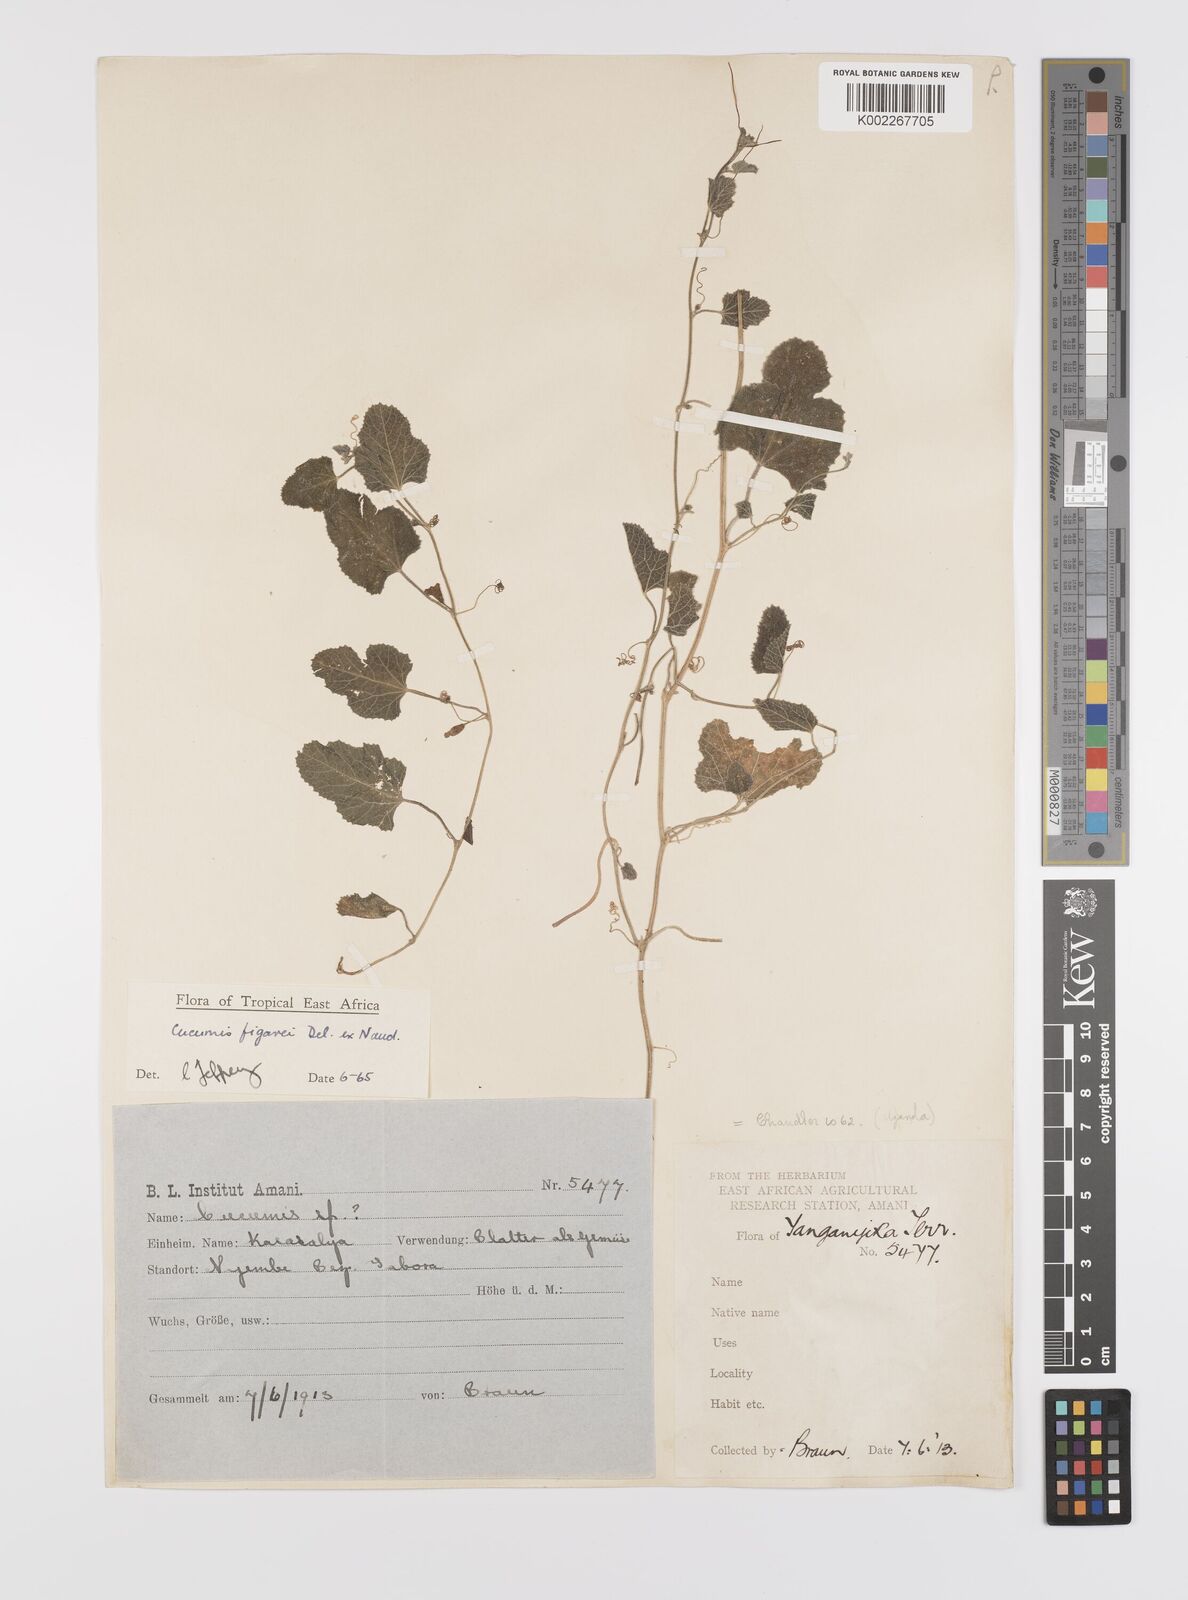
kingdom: Plantae
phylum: Tracheophyta
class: Magnoliopsida
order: Cucurbitales
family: Cucurbitaceae
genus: Cucumis
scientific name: Cucumis pustulatus
